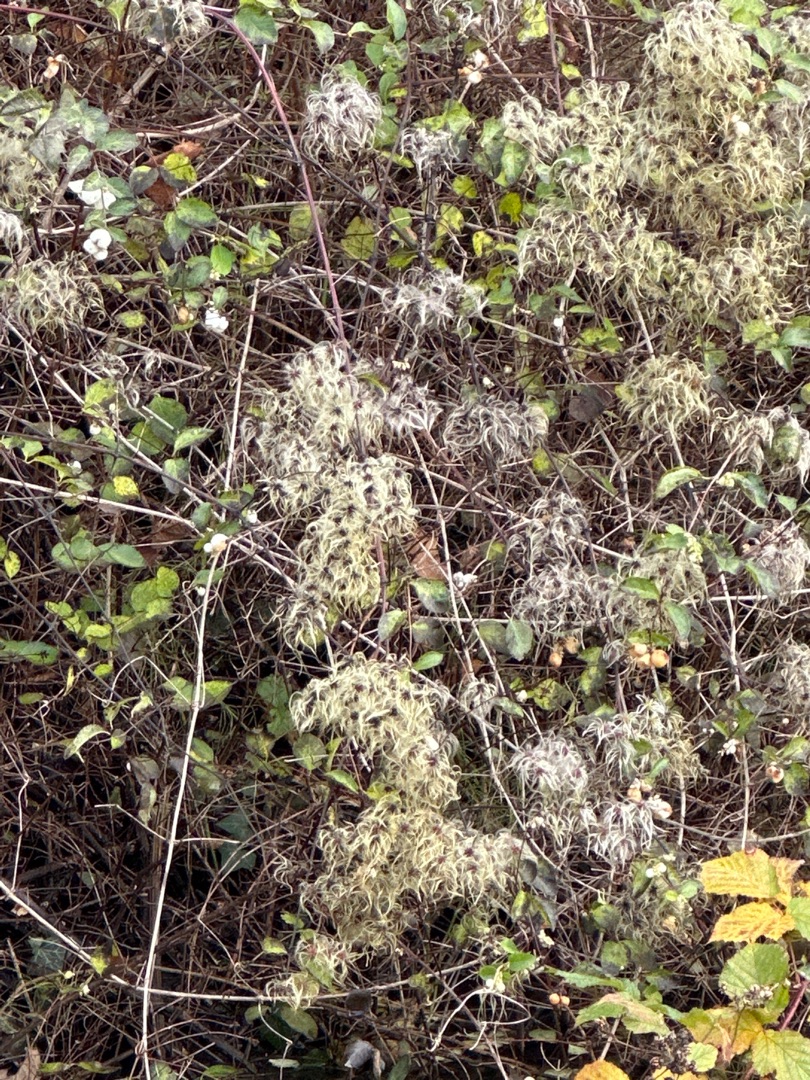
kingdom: Plantae
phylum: Tracheophyta
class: Magnoliopsida
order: Ranunculales
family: Ranunculaceae
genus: Clematis
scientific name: Clematis vitalba
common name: Skovranke
